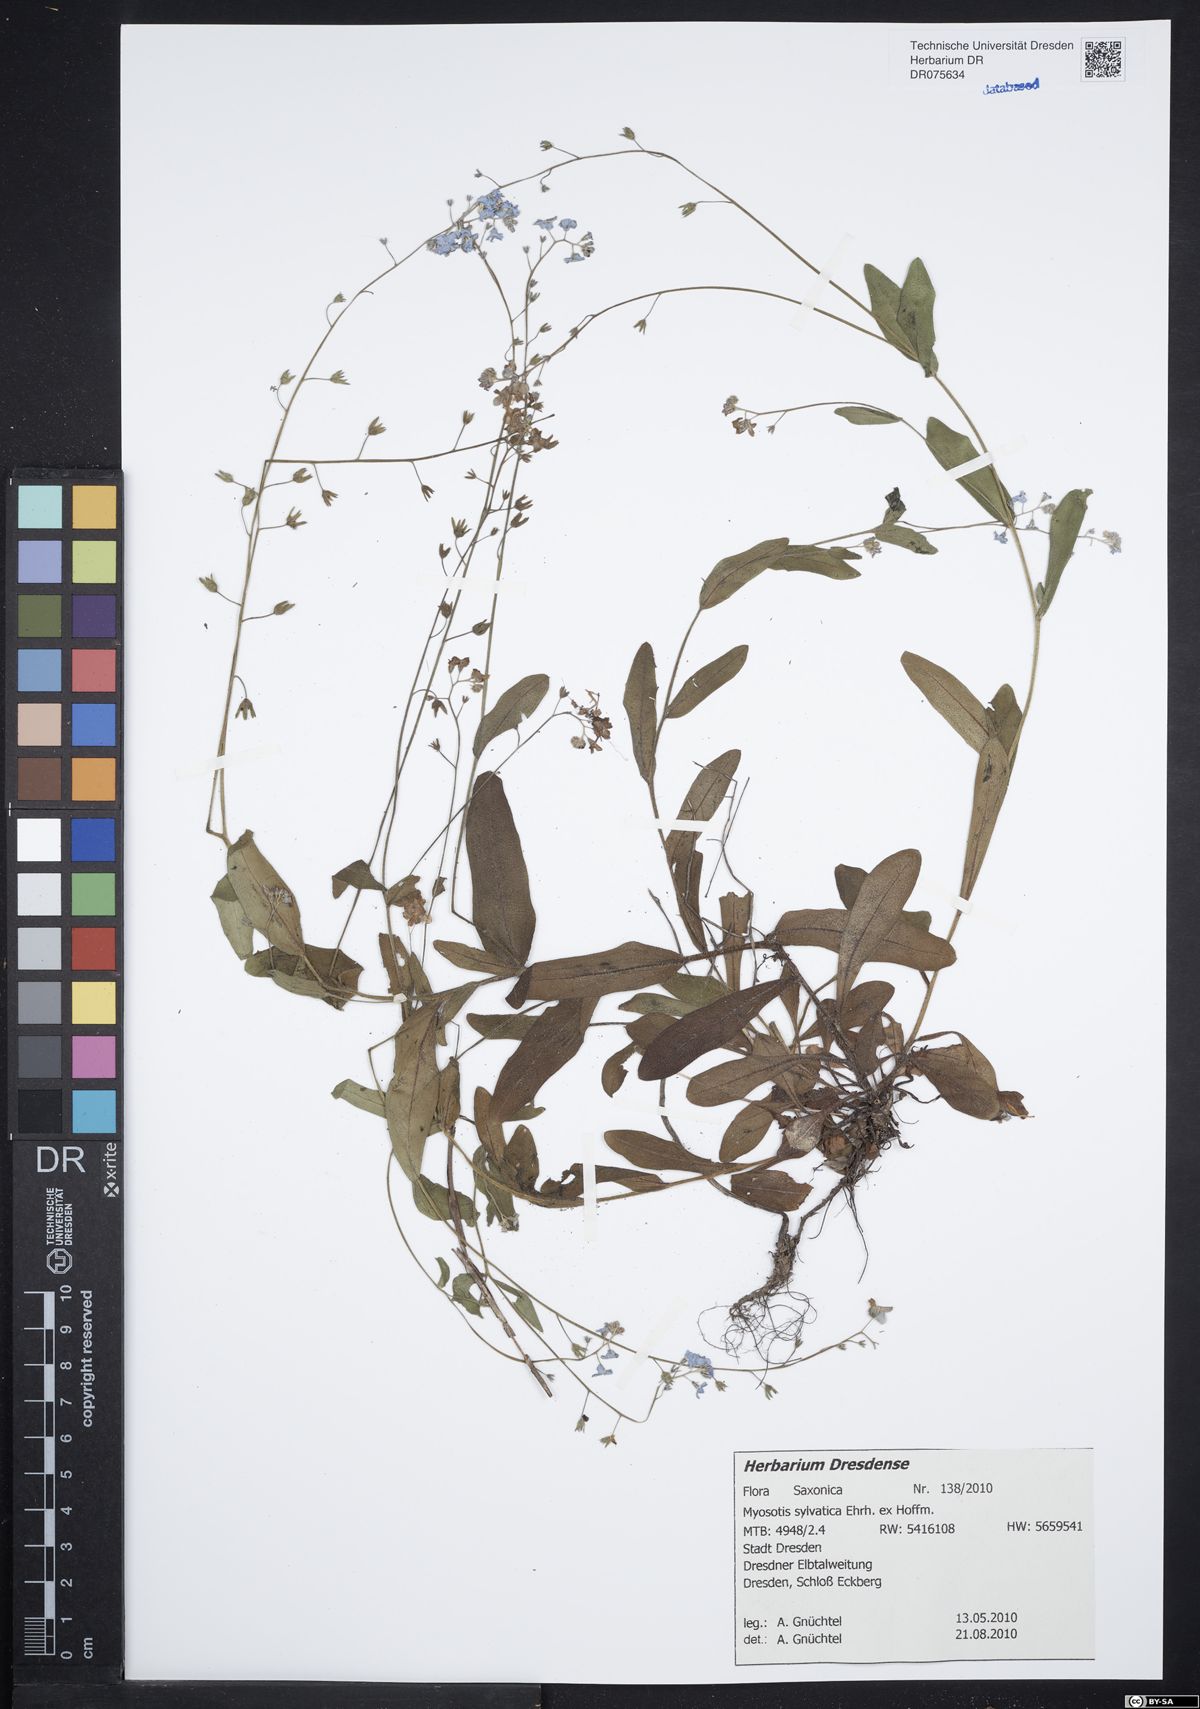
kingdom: Plantae
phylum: Tracheophyta
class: Magnoliopsida
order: Boraginales
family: Boraginaceae
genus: Myosotis
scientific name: Myosotis sylvatica
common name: Wood forget-me-not
